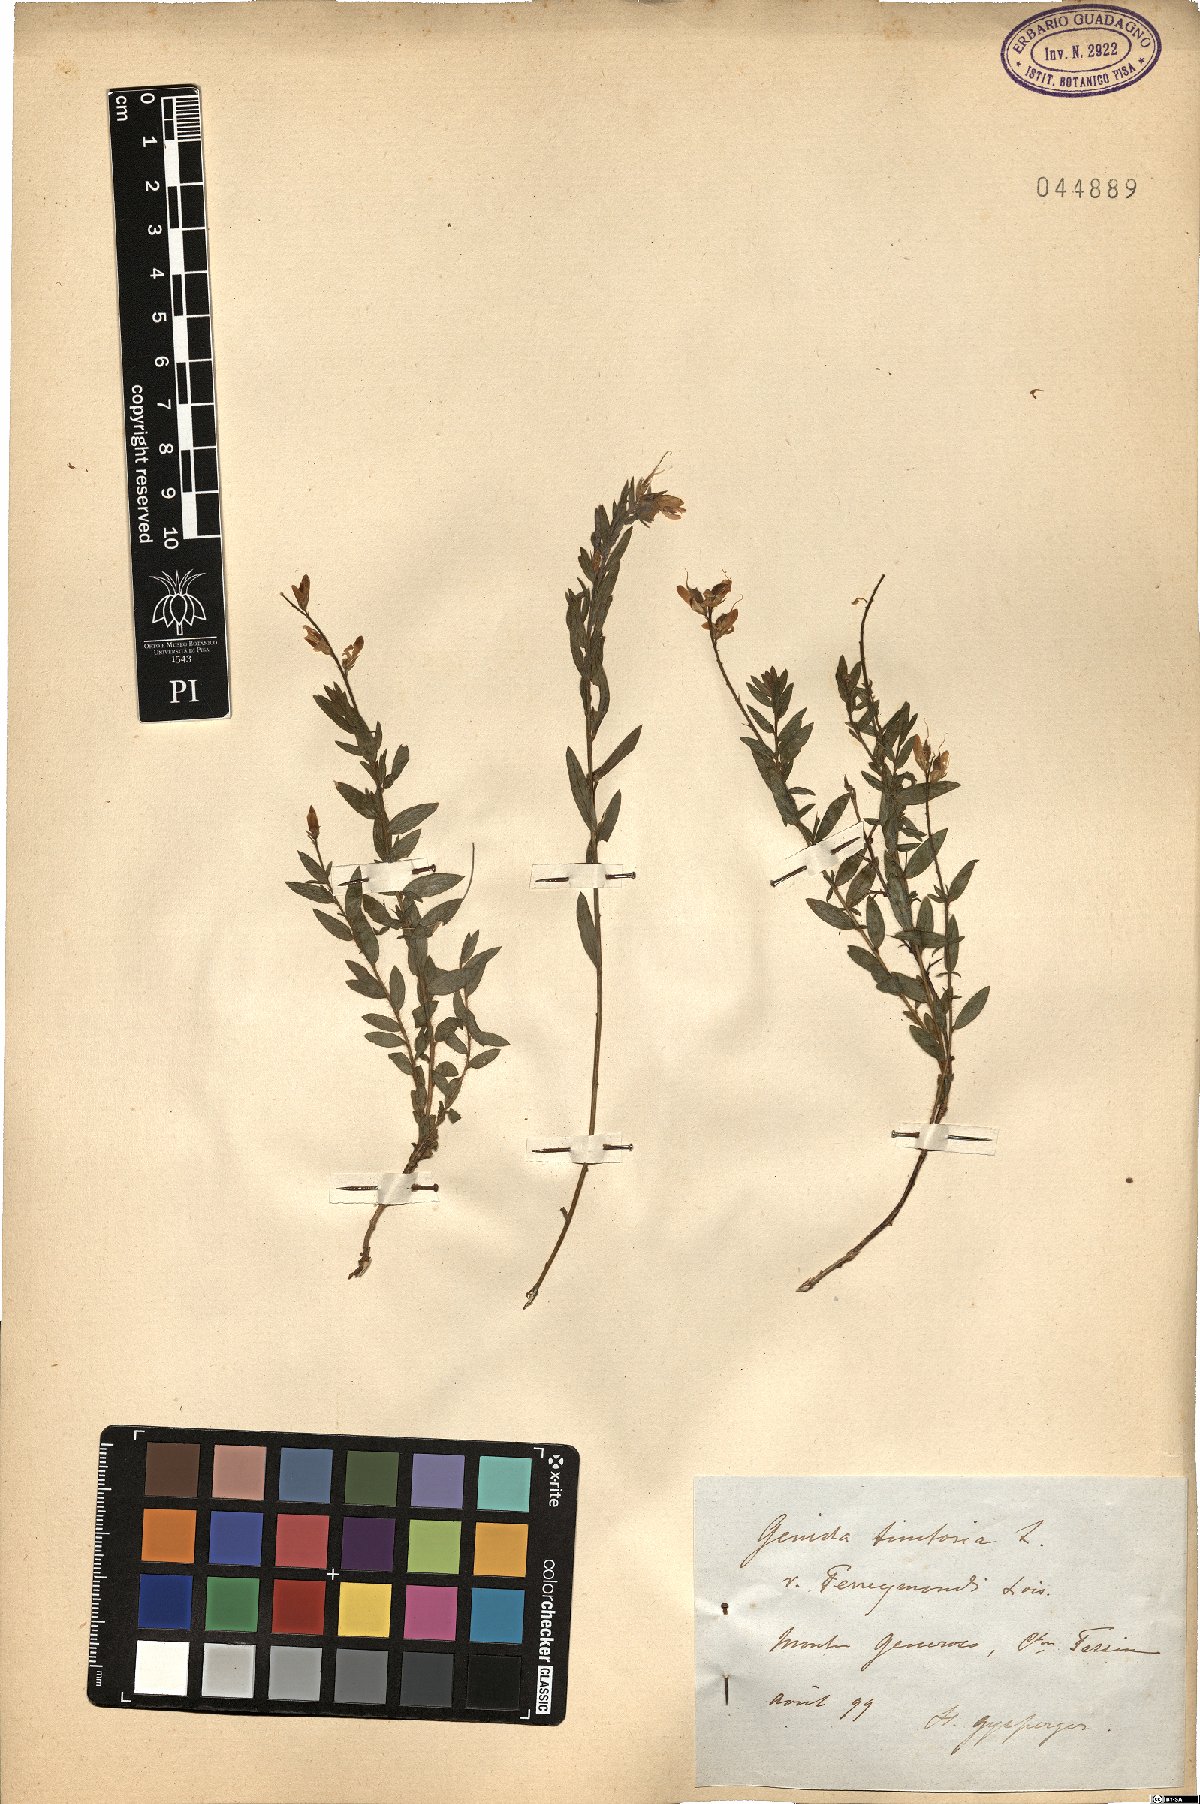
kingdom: Plantae
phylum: Tracheophyta
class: Magnoliopsida
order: Fabales
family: Fabaceae
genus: Genista
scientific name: Genista tinctoria
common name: Dyer's greenweed
